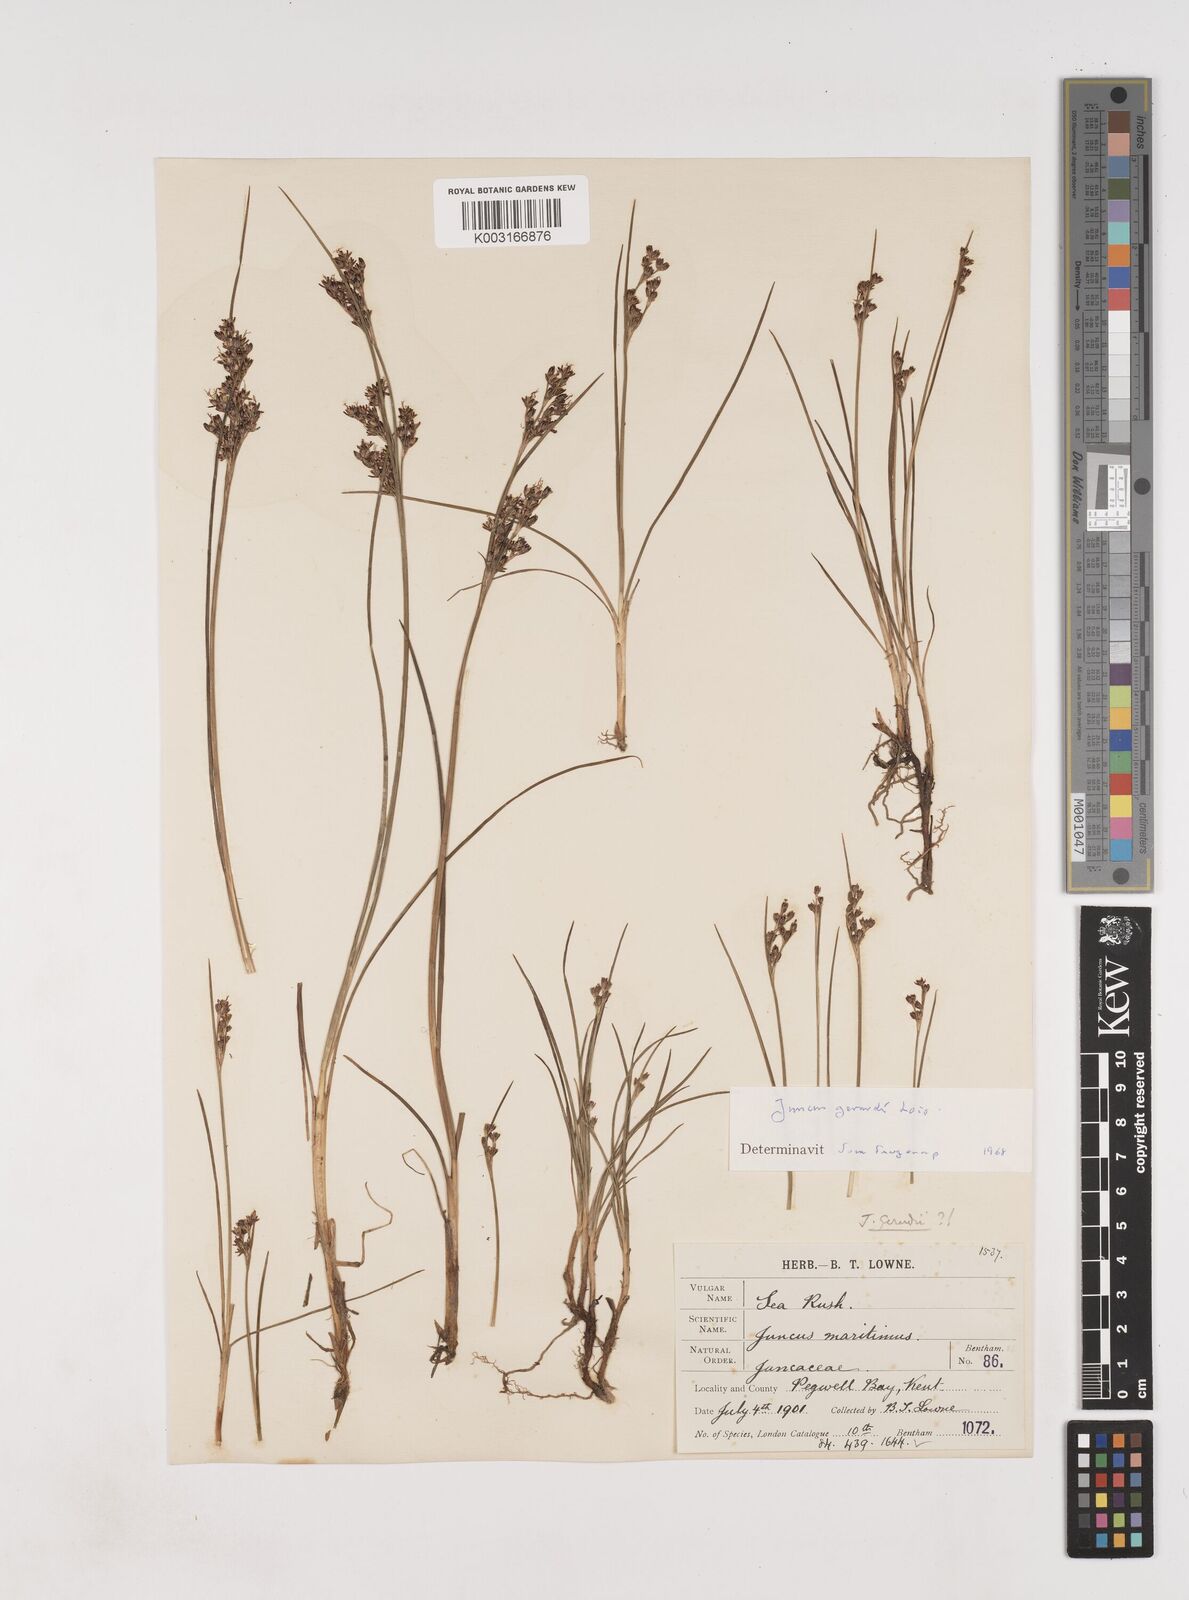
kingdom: Plantae
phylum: Tracheophyta
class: Liliopsida
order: Poales
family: Juncaceae
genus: Juncus
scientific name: Juncus gerardi
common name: Saltmarsh rush
